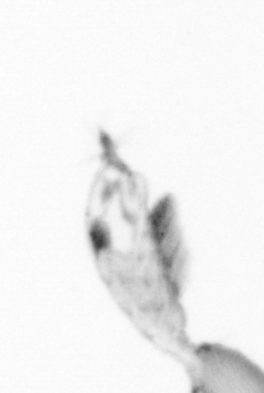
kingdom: Animalia
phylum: Arthropoda
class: Copepoda
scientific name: Copepoda
